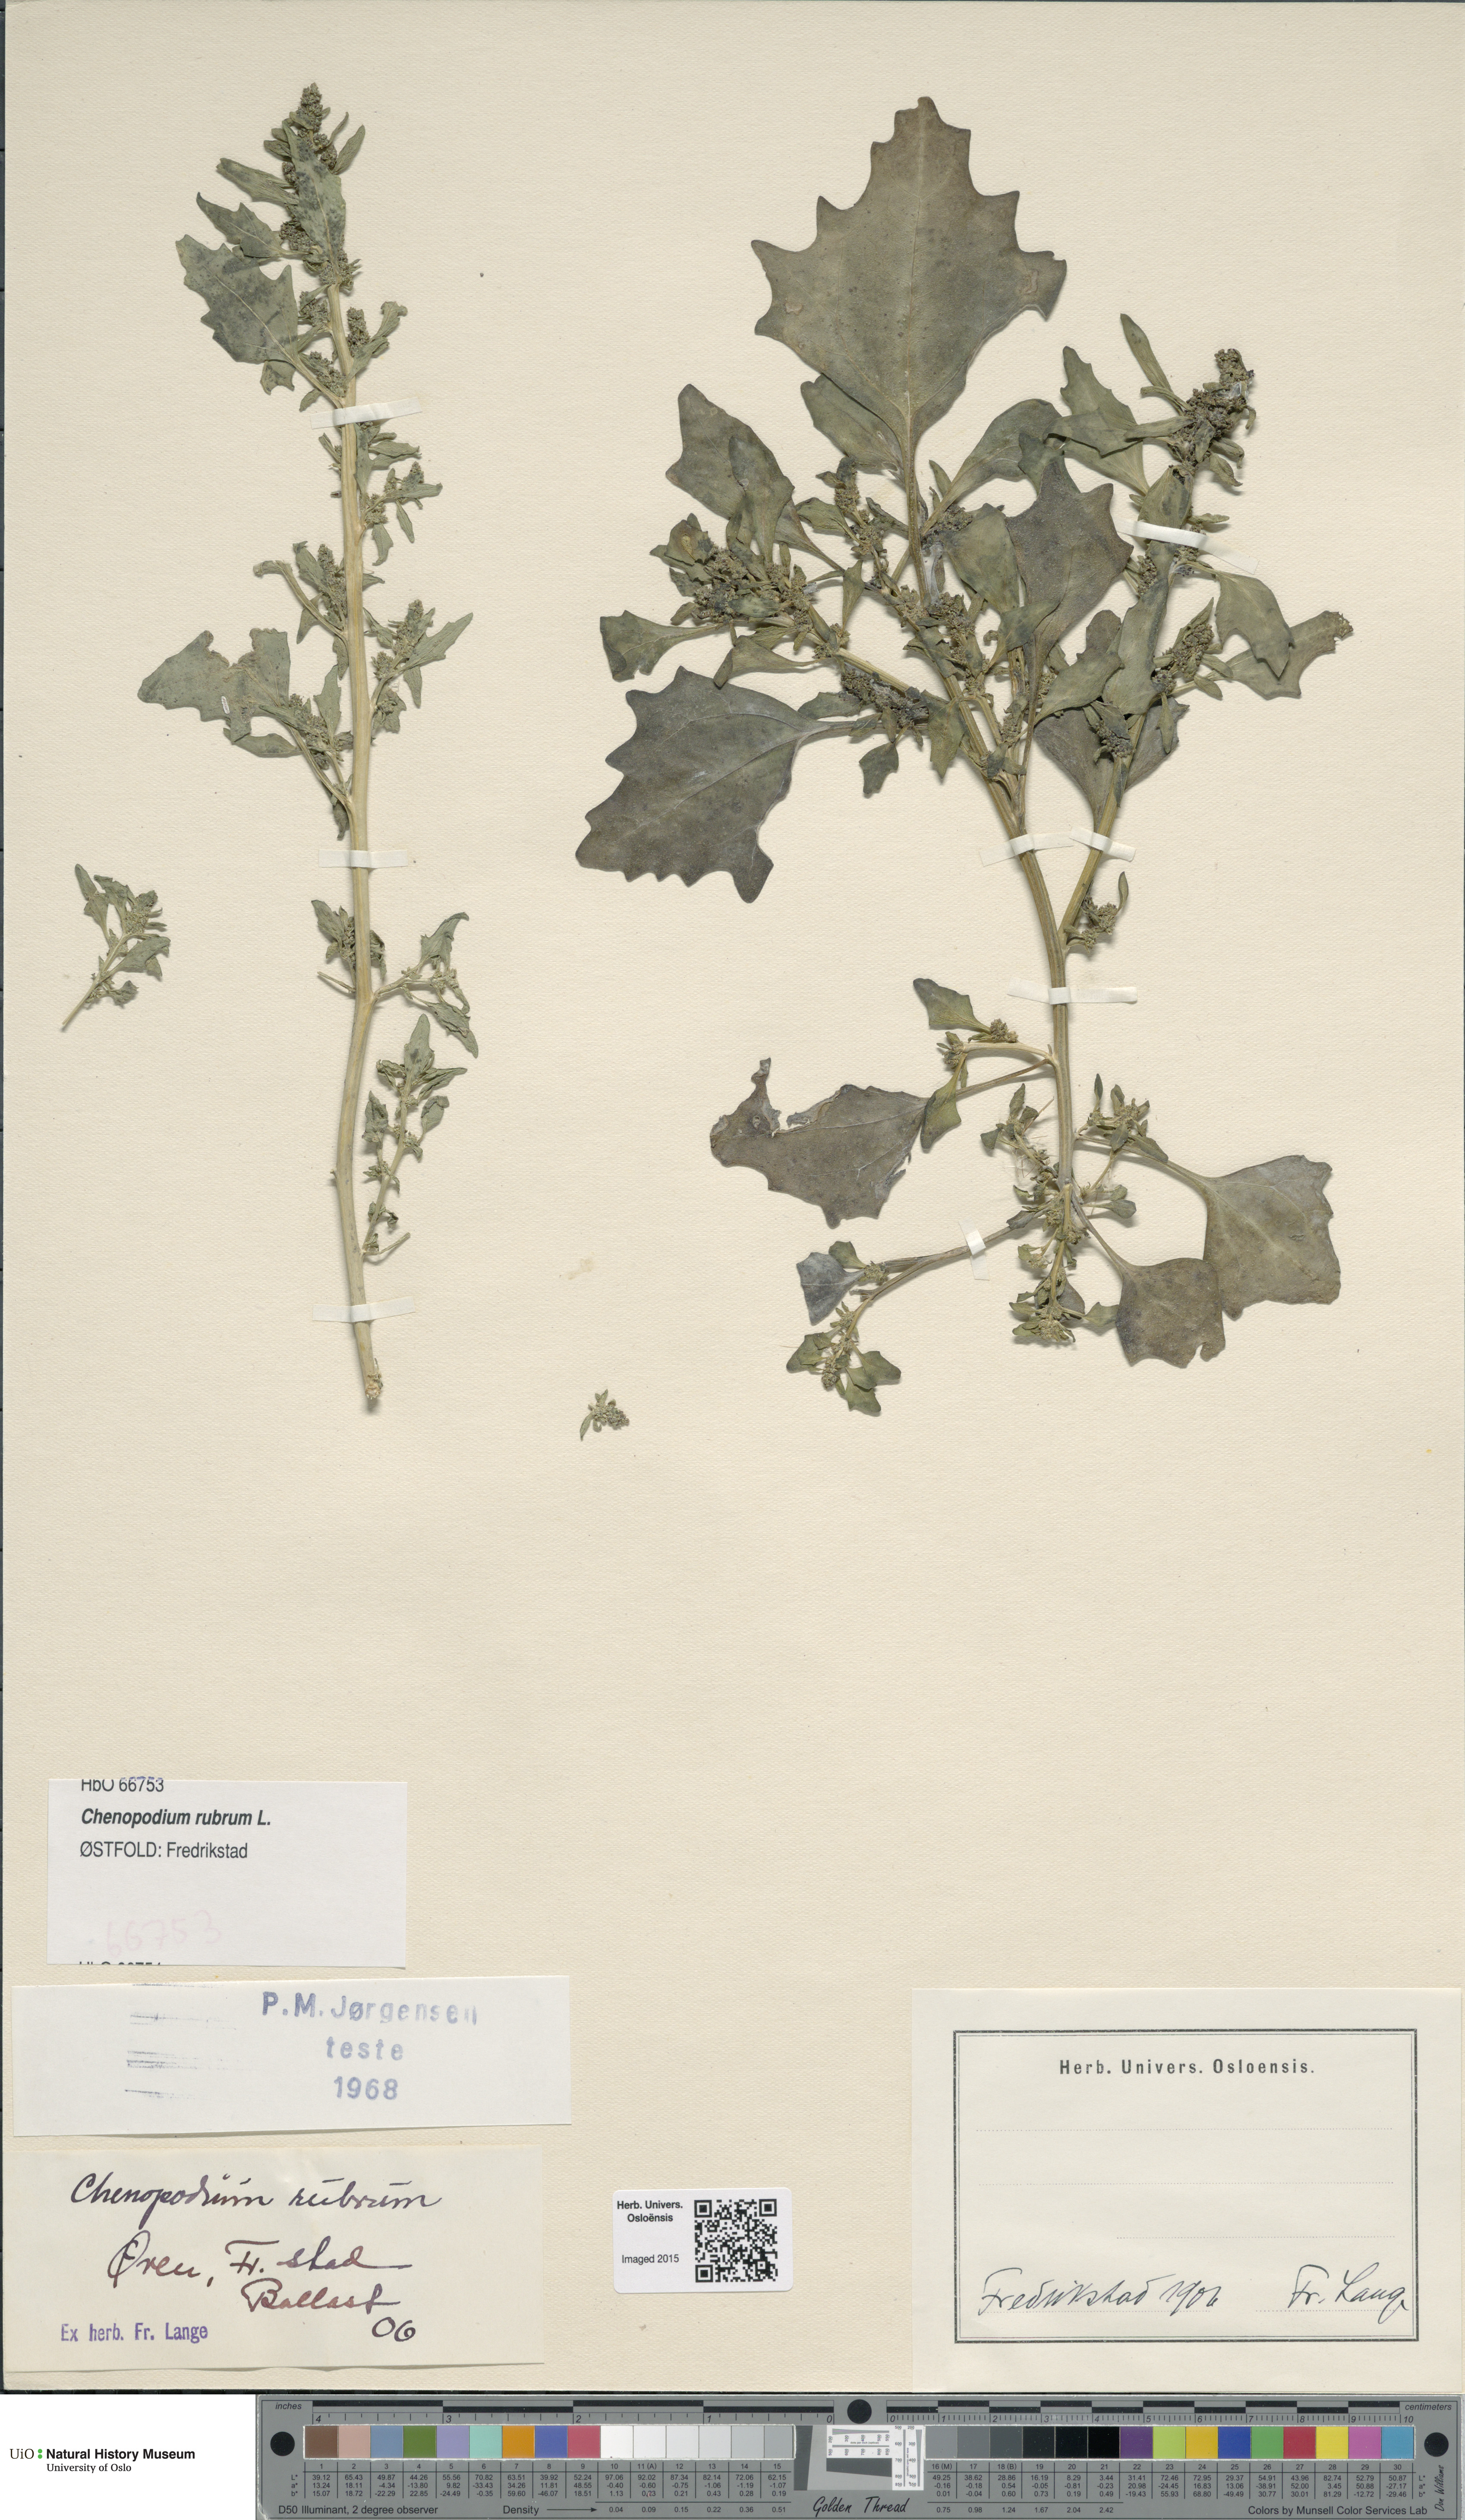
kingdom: Plantae
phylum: Tracheophyta
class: Magnoliopsida
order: Caryophyllales
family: Amaranthaceae
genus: Oxybasis
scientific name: Oxybasis rubra
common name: Red goosefoot
